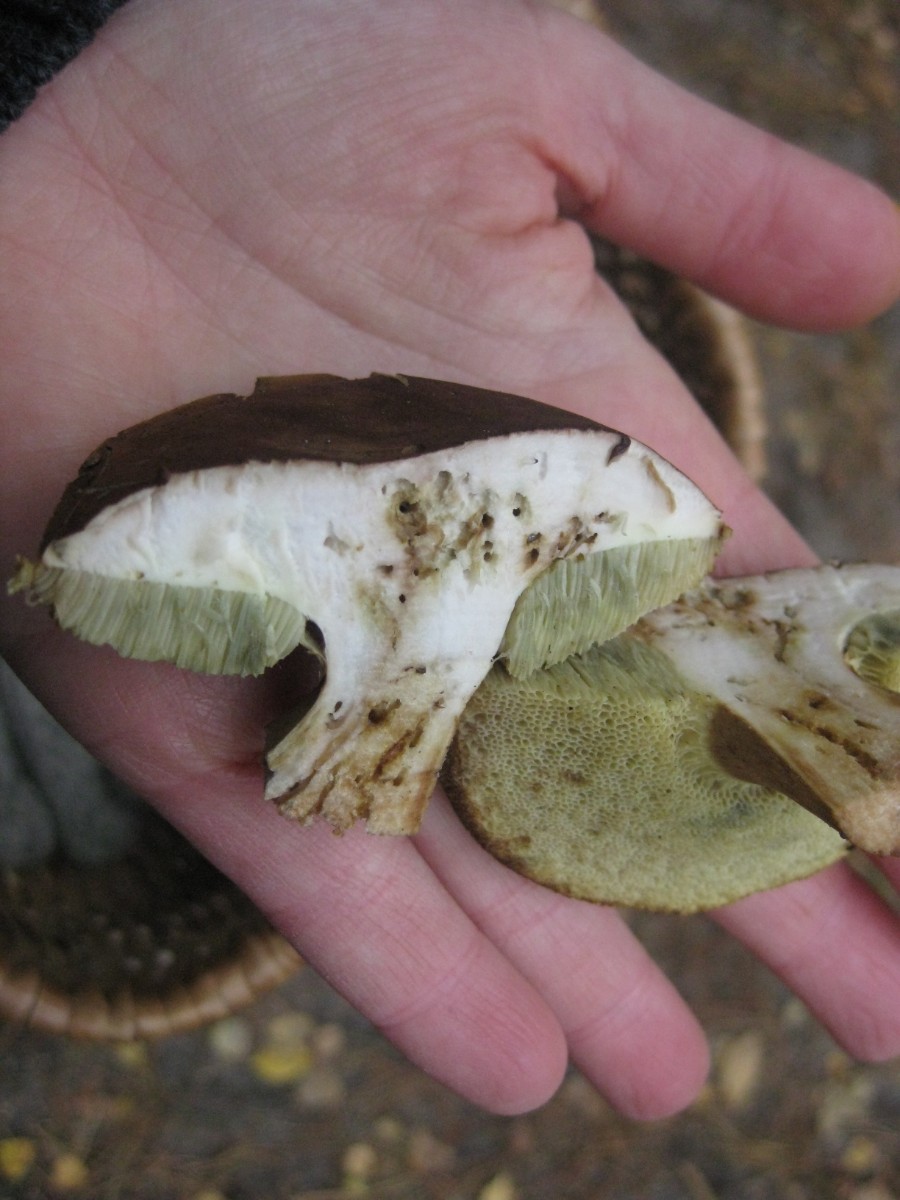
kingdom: Fungi
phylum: Basidiomycota
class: Agaricomycetes
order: Boletales
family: Boletaceae
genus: Imleria
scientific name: Imleria badia
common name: brunstokket rørhat
